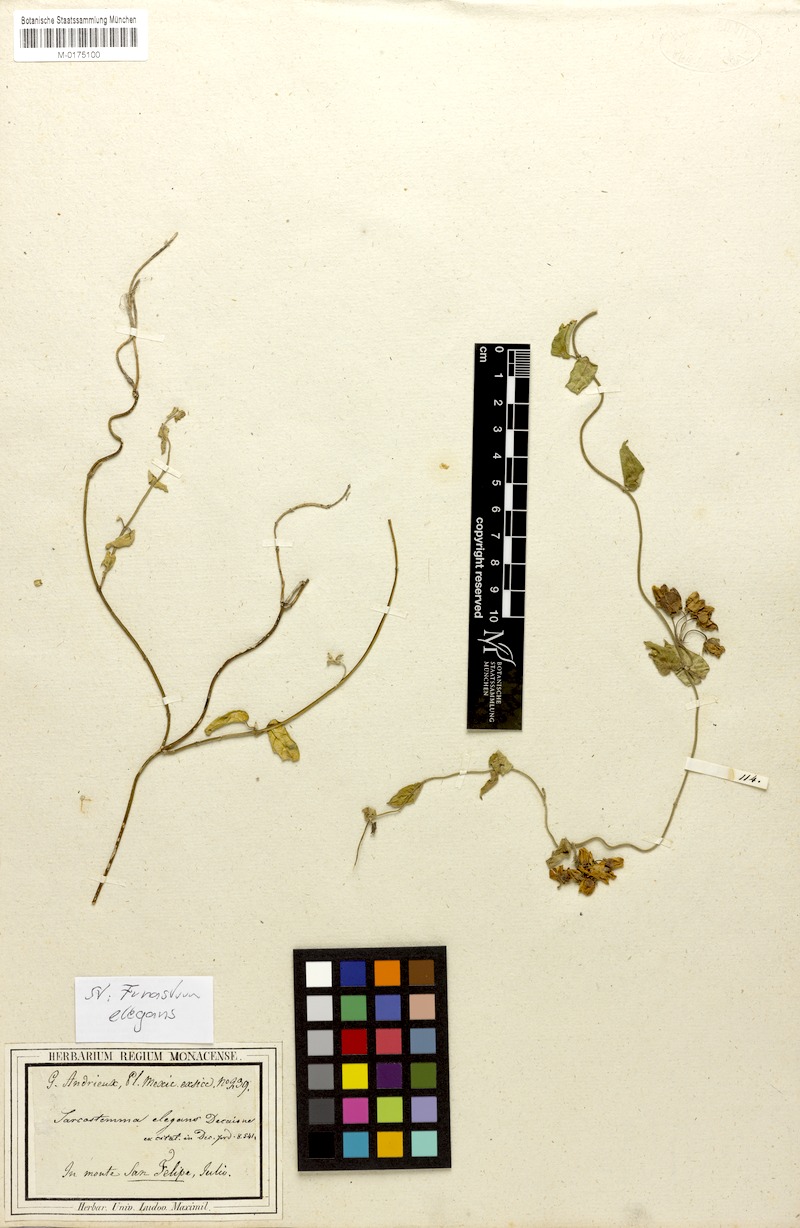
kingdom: Plantae
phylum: Tracheophyta
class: Magnoliopsida
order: Gentianales
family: Apocynaceae
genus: Funastrum
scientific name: Funastrum elegans
